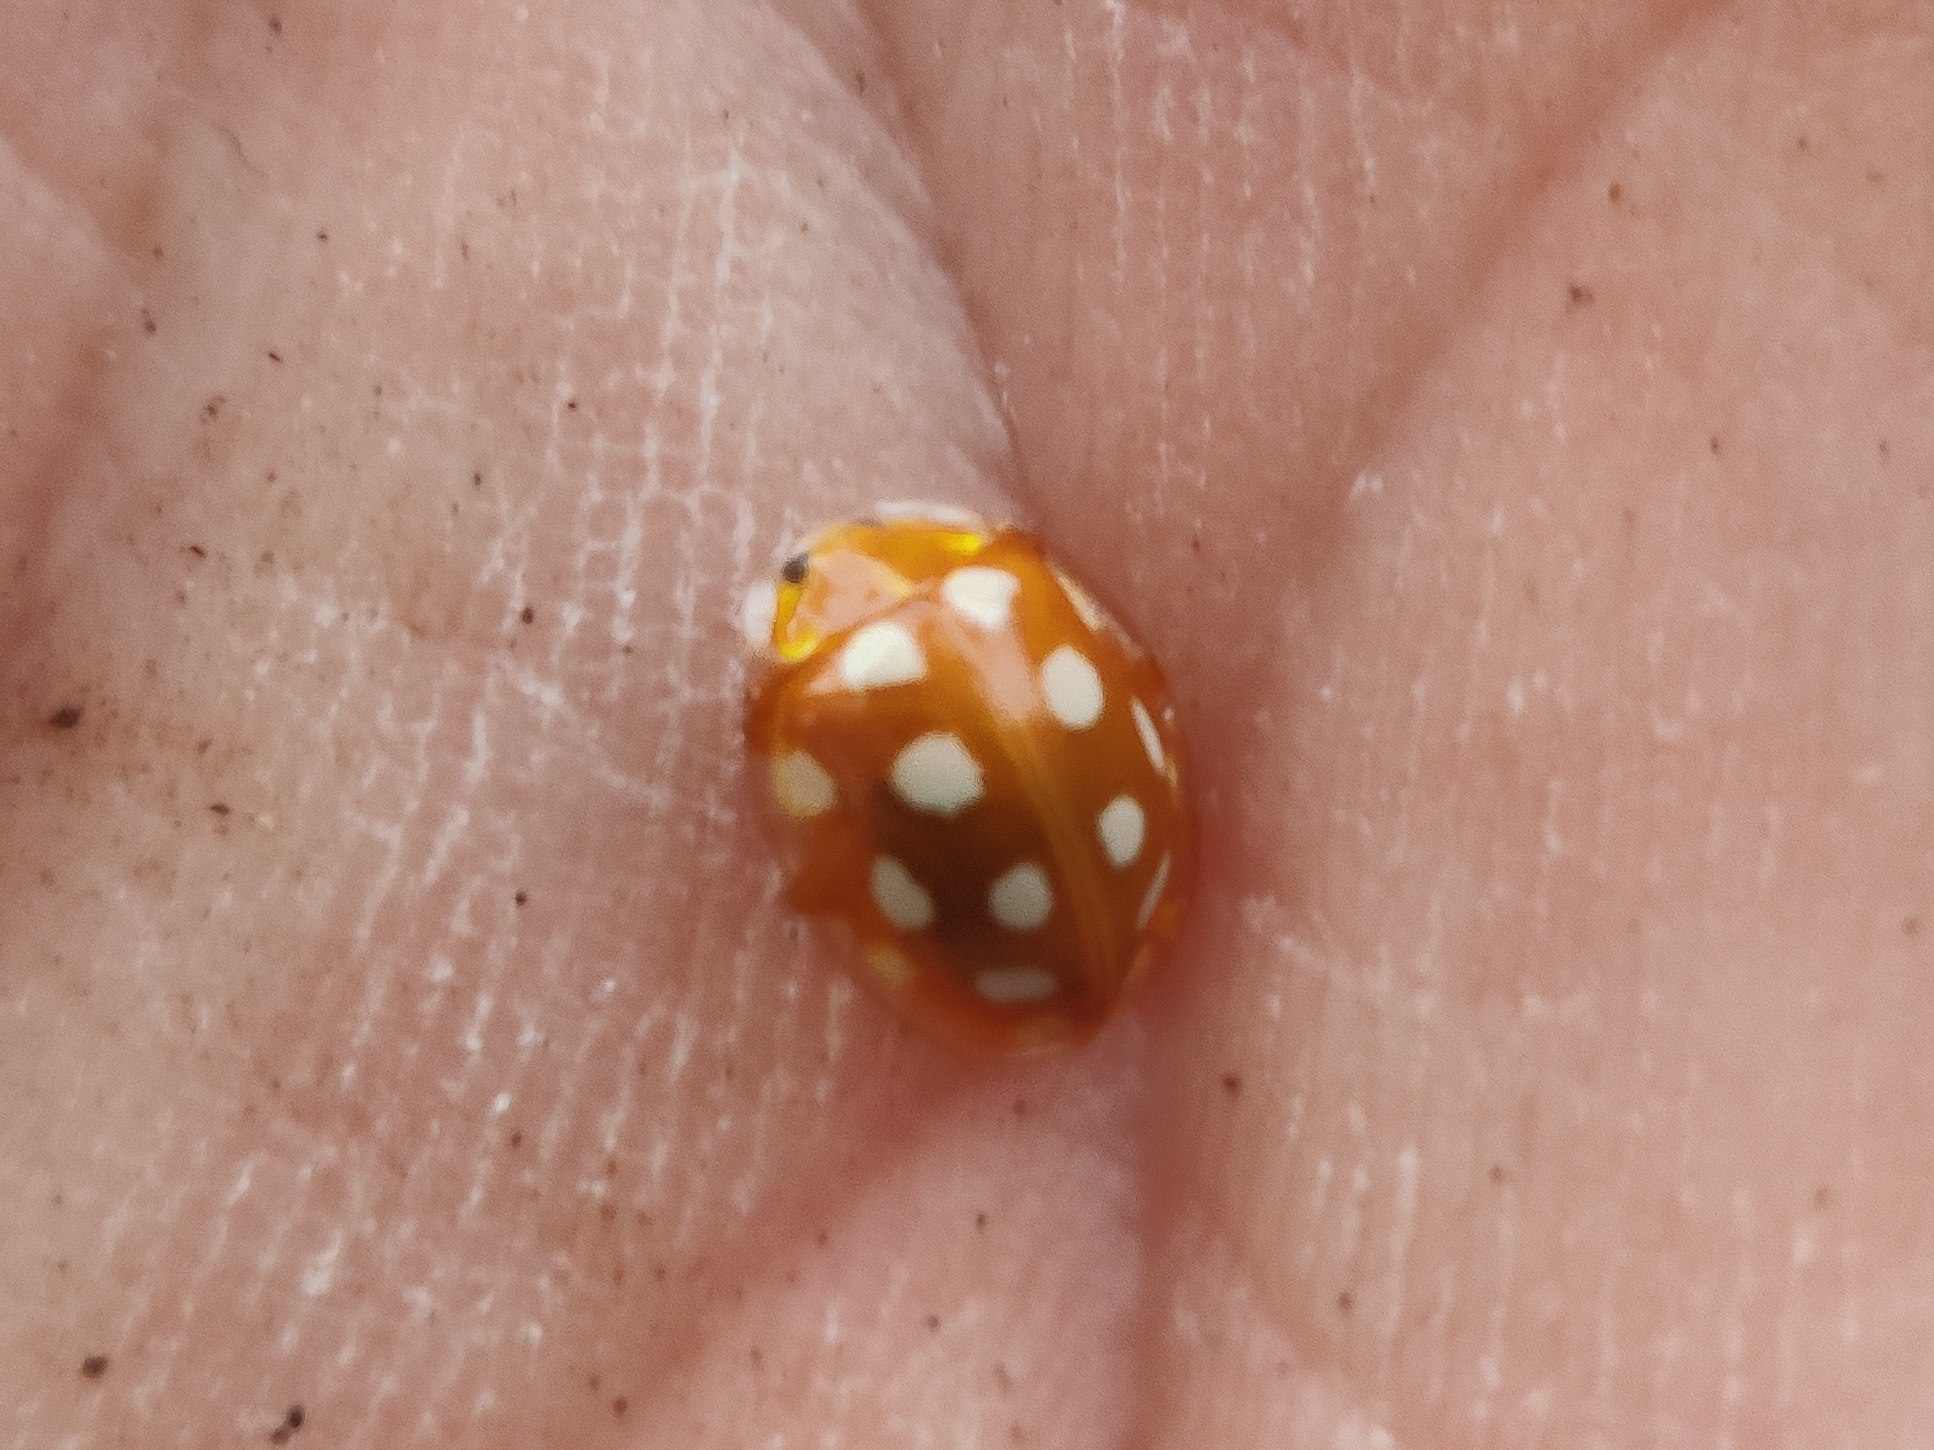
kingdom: Animalia
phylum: Arthropoda
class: Insecta
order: Coleoptera
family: Coccinellidae
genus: Halyzia
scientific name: Halyzia sedecimguttata
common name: Sekstenplettet mariehøne
